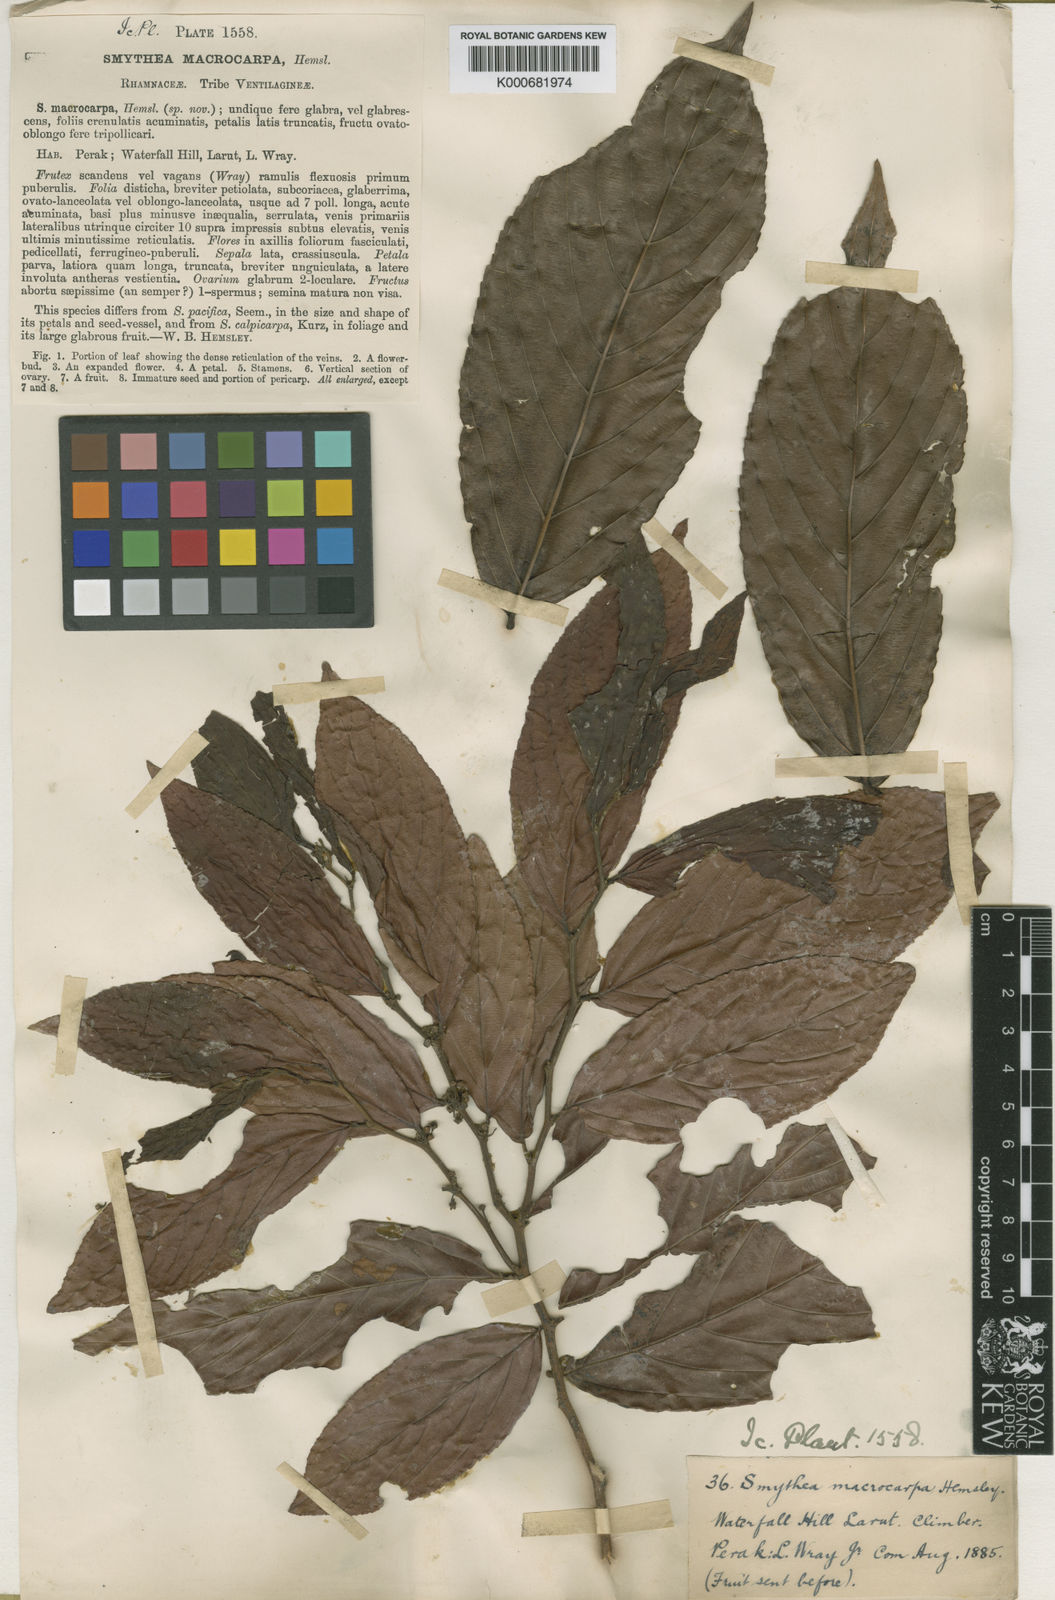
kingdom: Plantae
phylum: Tracheophyta
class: Magnoliopsida
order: Rosales
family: Rhamnaceae
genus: Smythea
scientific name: Smythea macrocarpa
